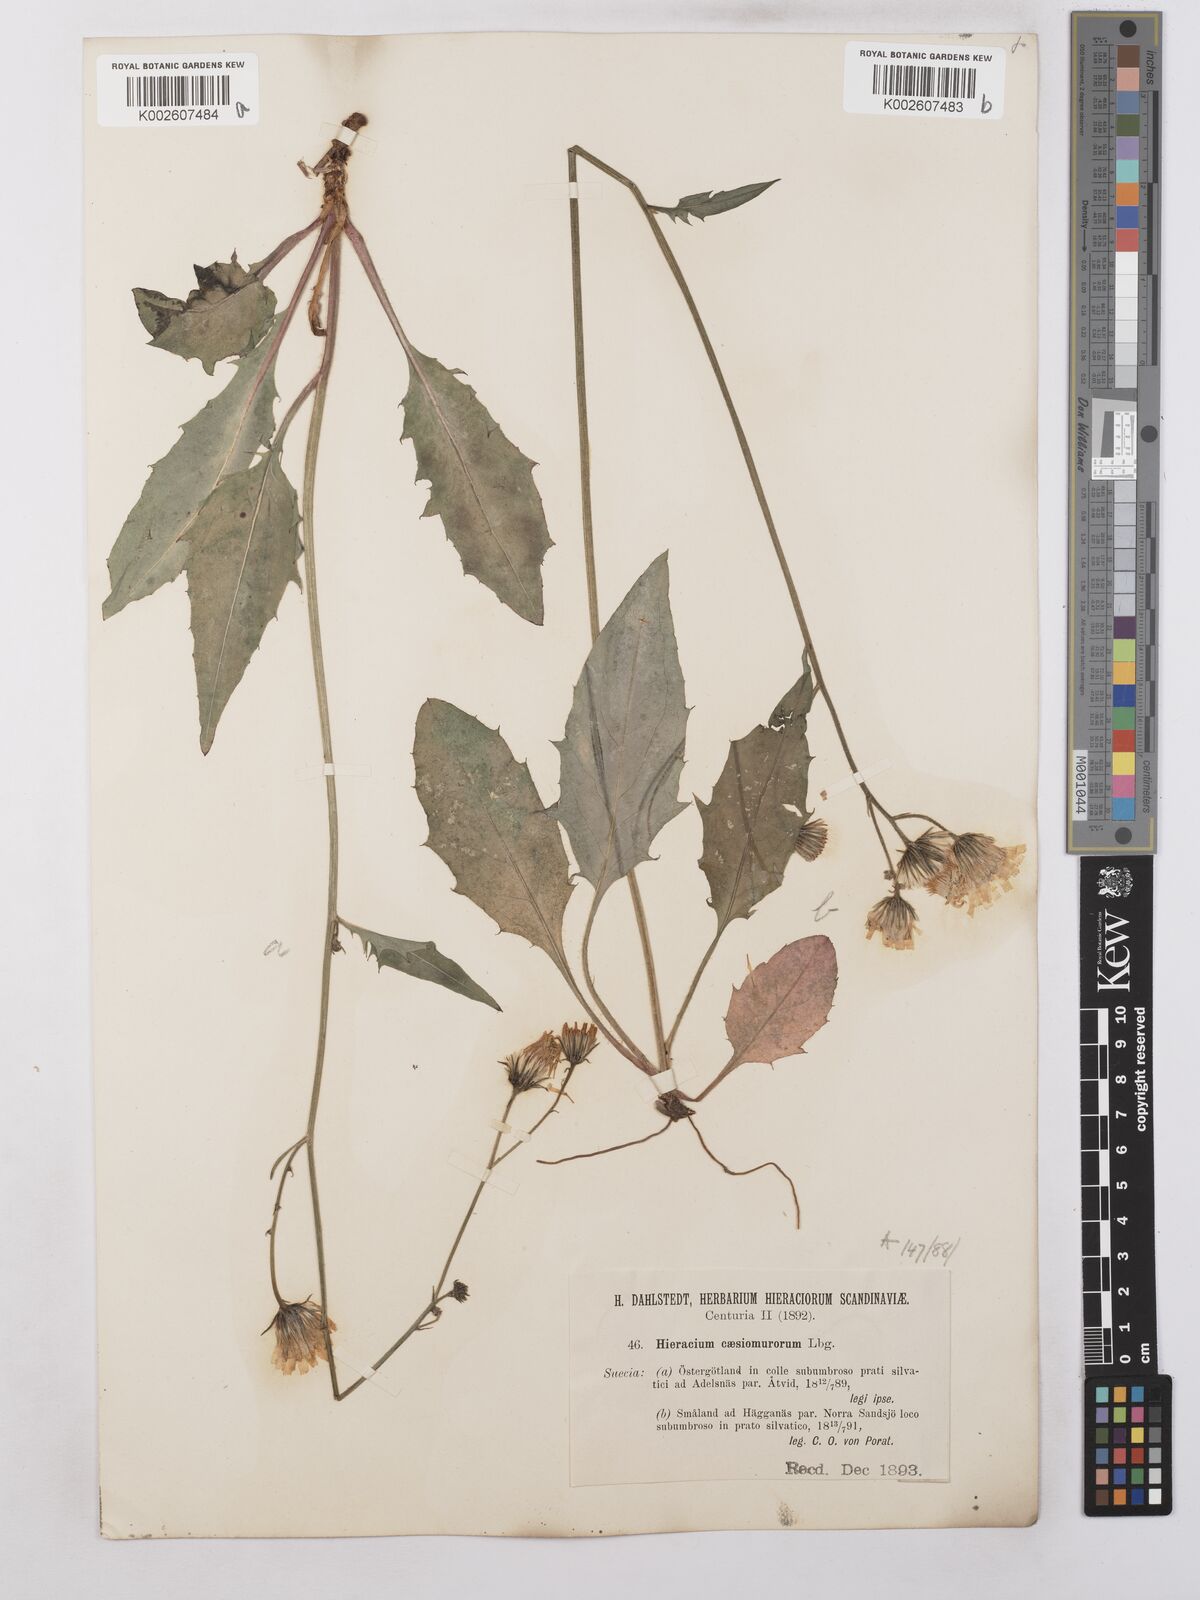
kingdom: Plantae
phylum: Tracheophyta
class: Magnoliopsida
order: Asterales
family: Asteraceae
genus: Hieracium
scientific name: Hieracium caesium
